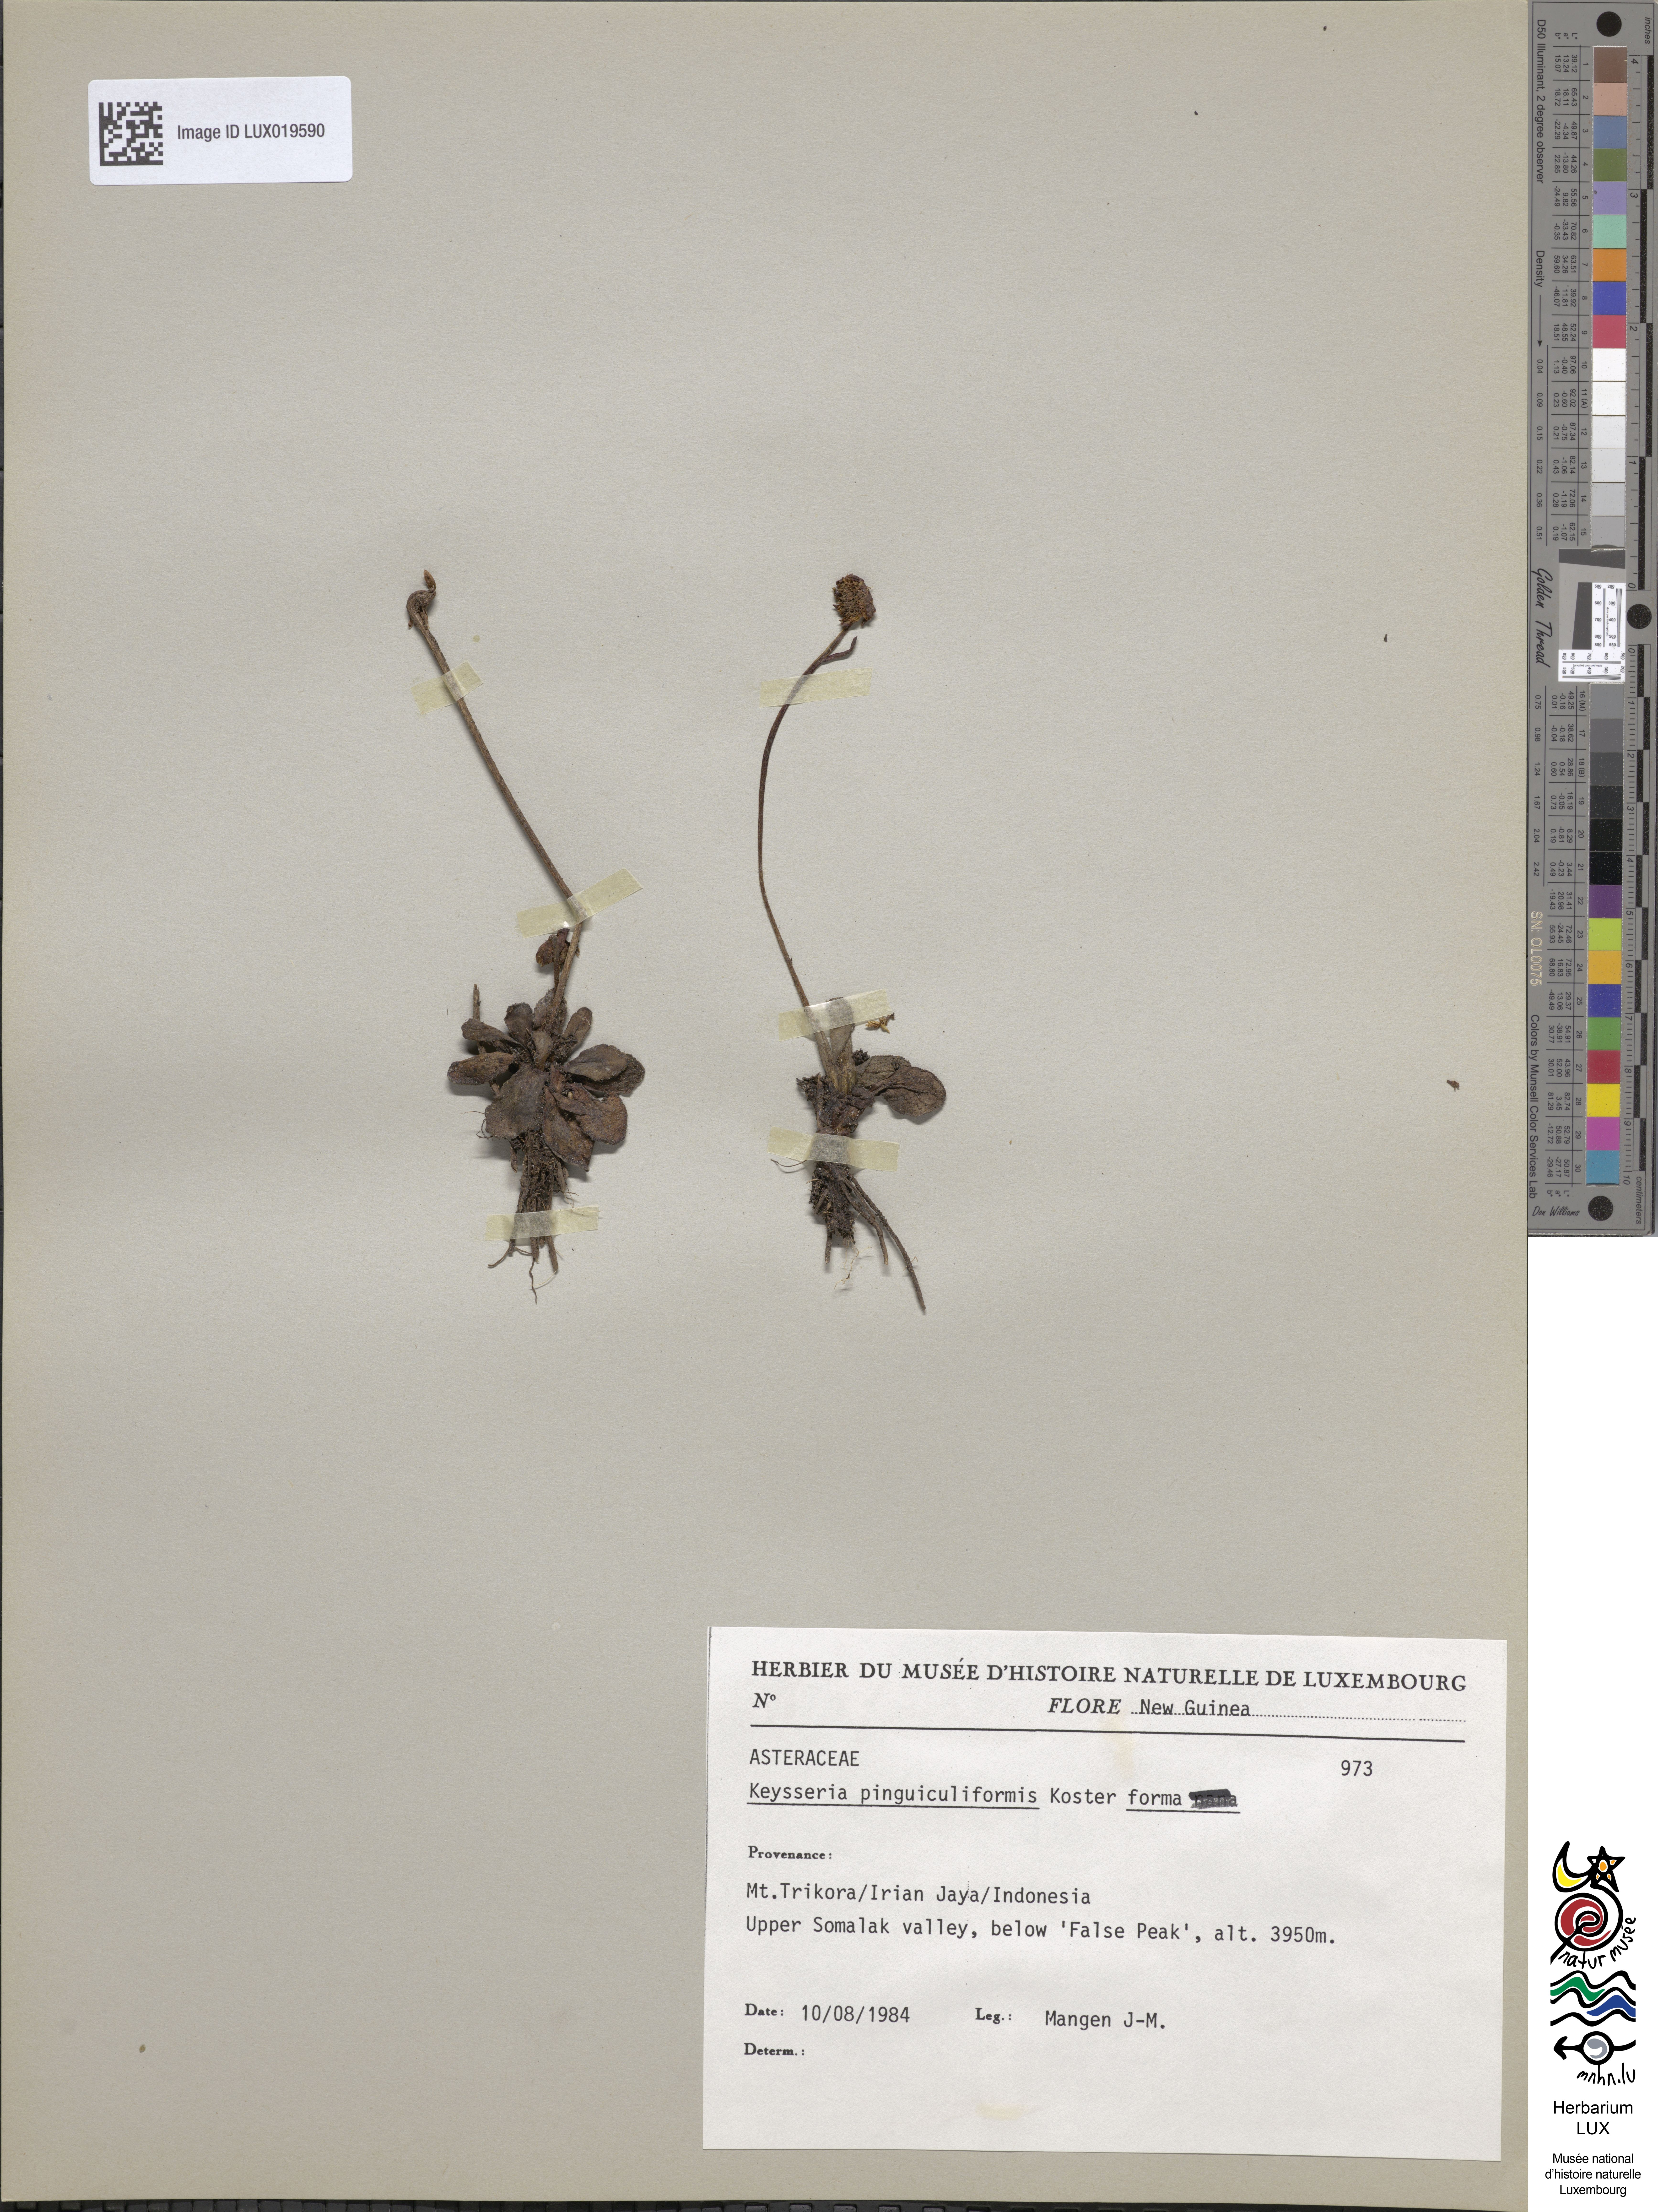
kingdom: Plantae
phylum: Tracheophyta
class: Magnoliopsida
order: Asterales
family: Asteraceae
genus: Keysseria
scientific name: Keysseria pinguiculiformis
